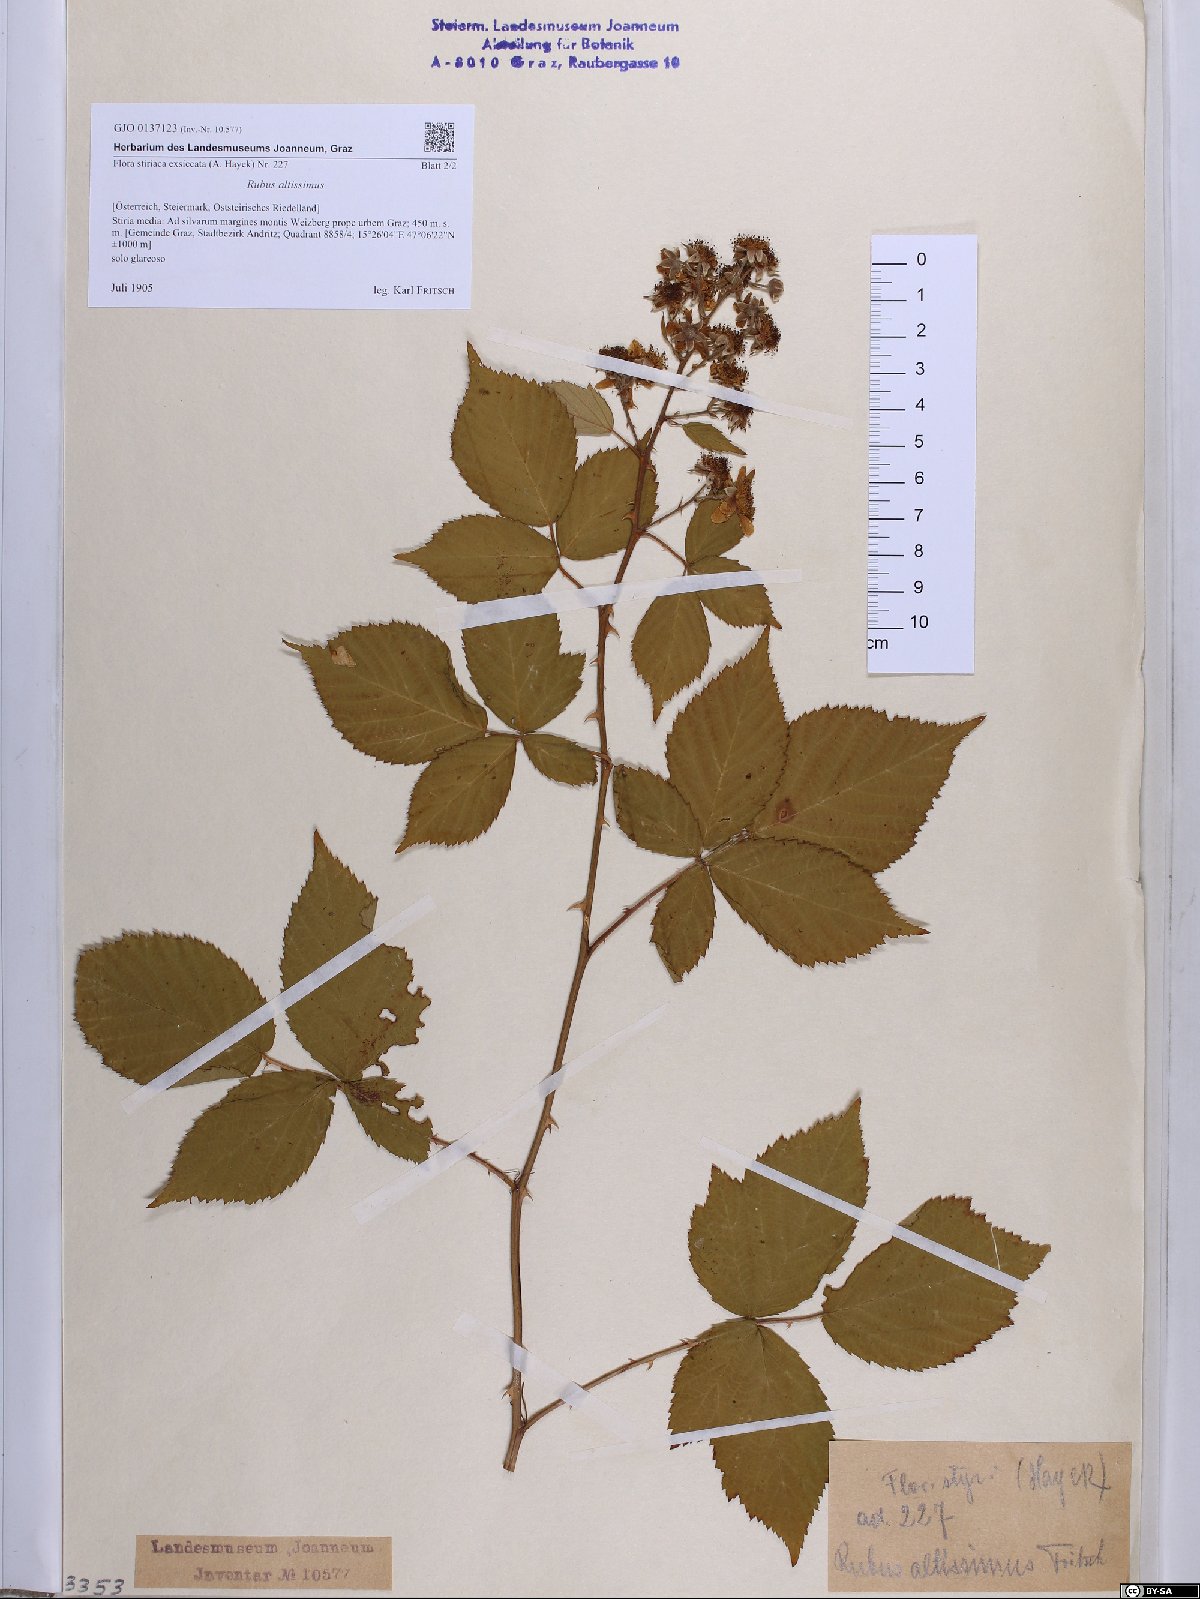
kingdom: Plantae
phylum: Tracheophyta
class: Magnoliopsida
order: Rosales
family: Rosaceae
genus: Rubus
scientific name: Rubus sulcatus
